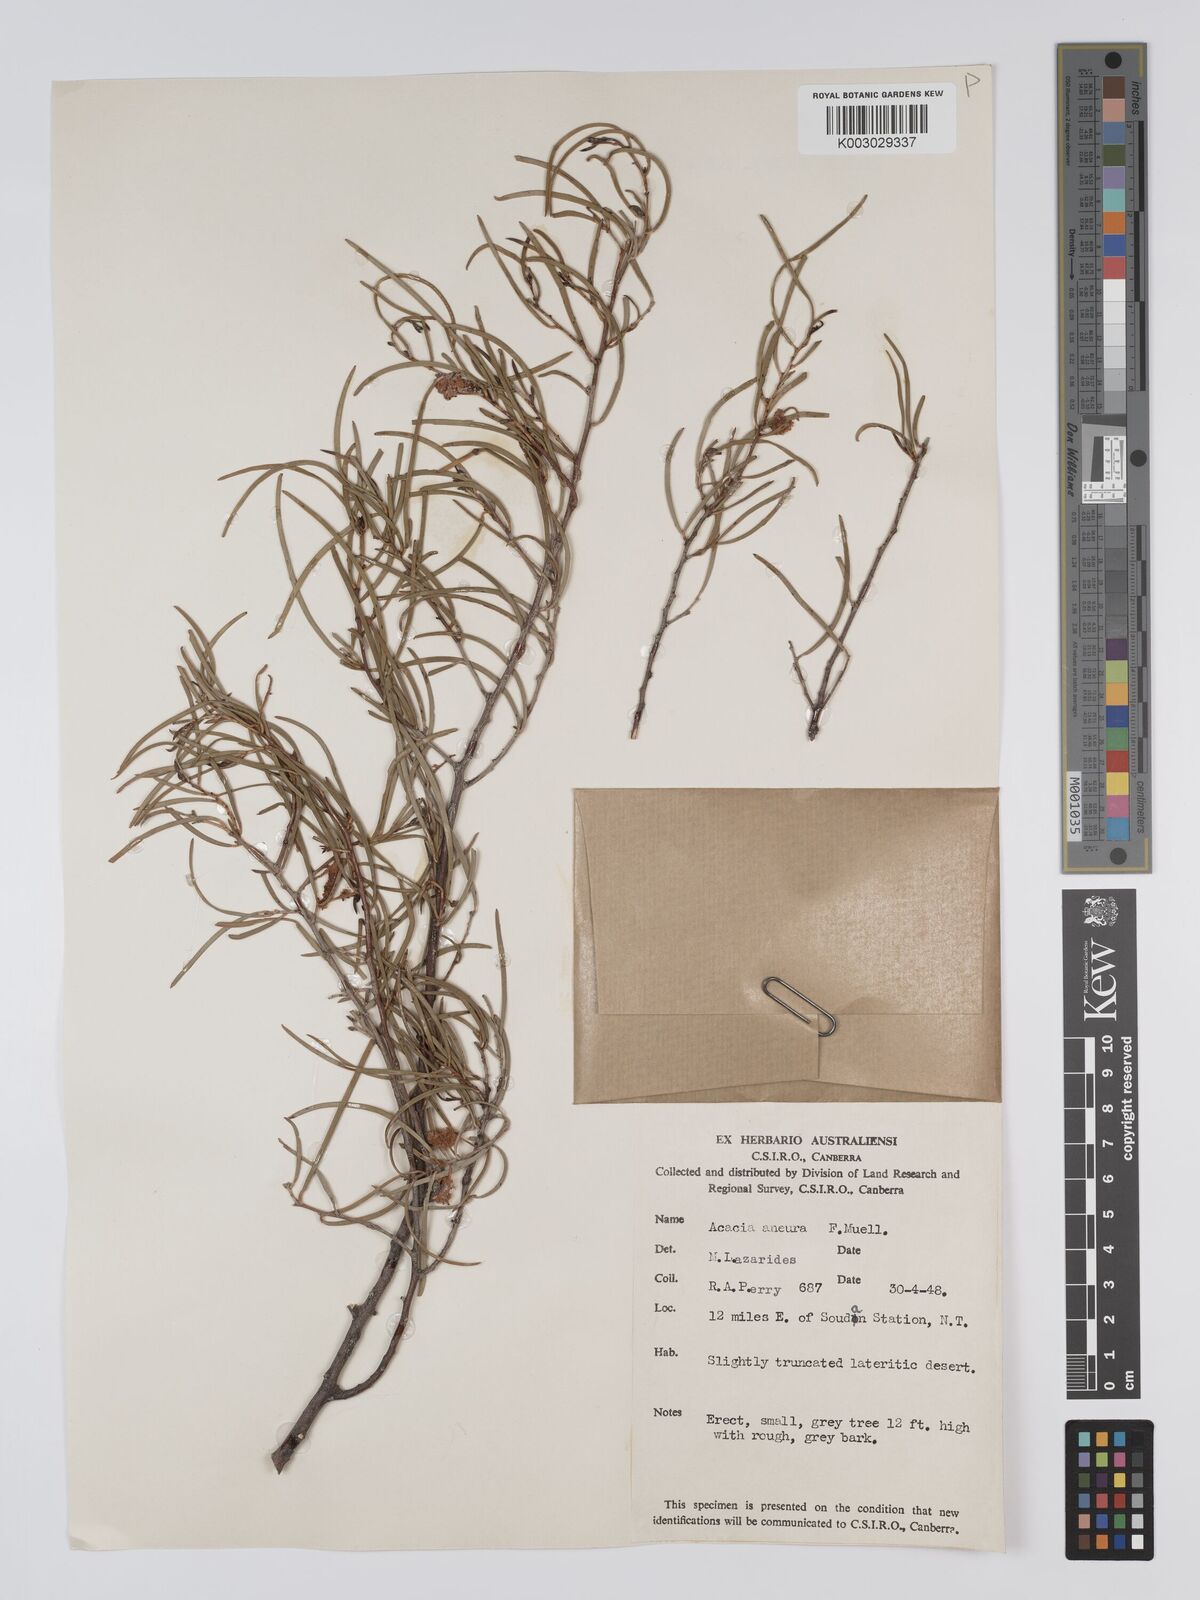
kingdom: Plantae
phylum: Tracheophyta
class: Magnoliopsida
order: Fabales
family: Fabaceae
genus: Acacia
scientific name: Acacia aneura
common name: Mulga
